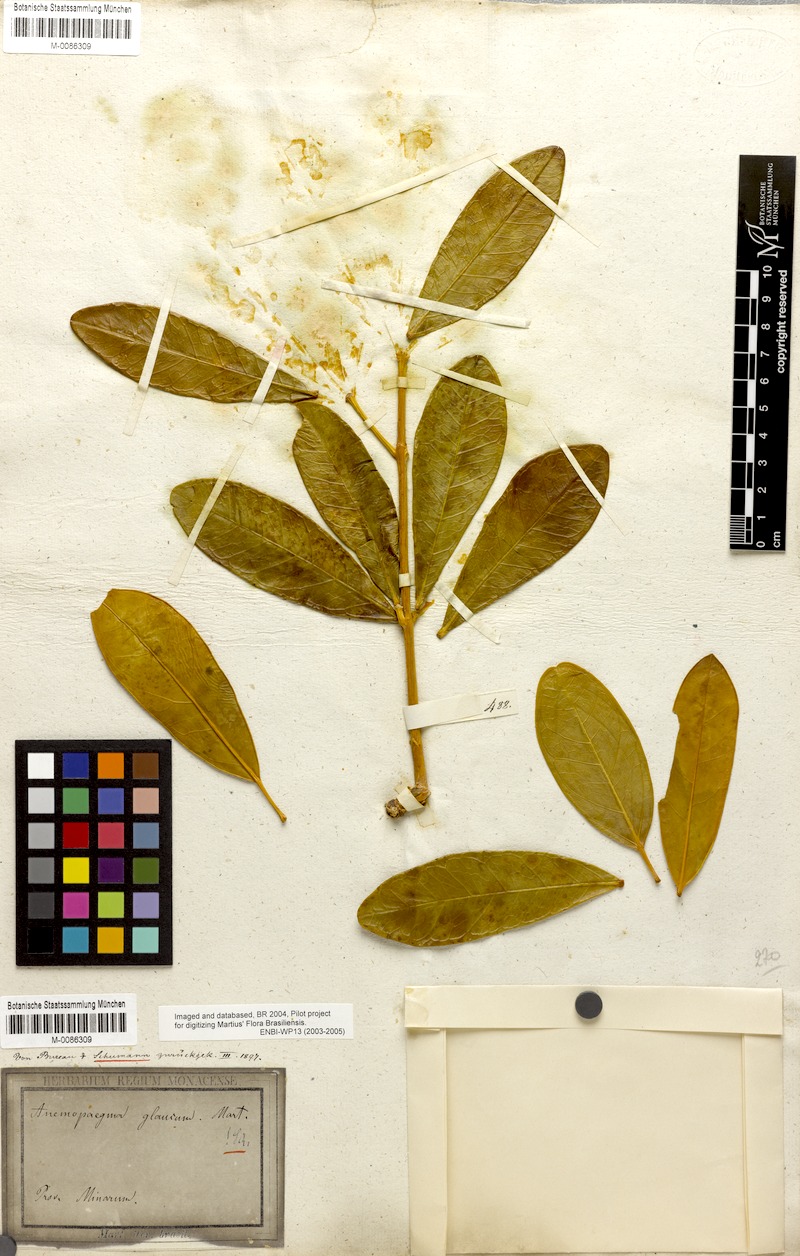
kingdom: Plantae
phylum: Tracheophyta
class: Magnoliopsida
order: Lamiales
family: Bignoniaceae
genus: Anemopaegma
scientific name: Anemopaegma glaucum
